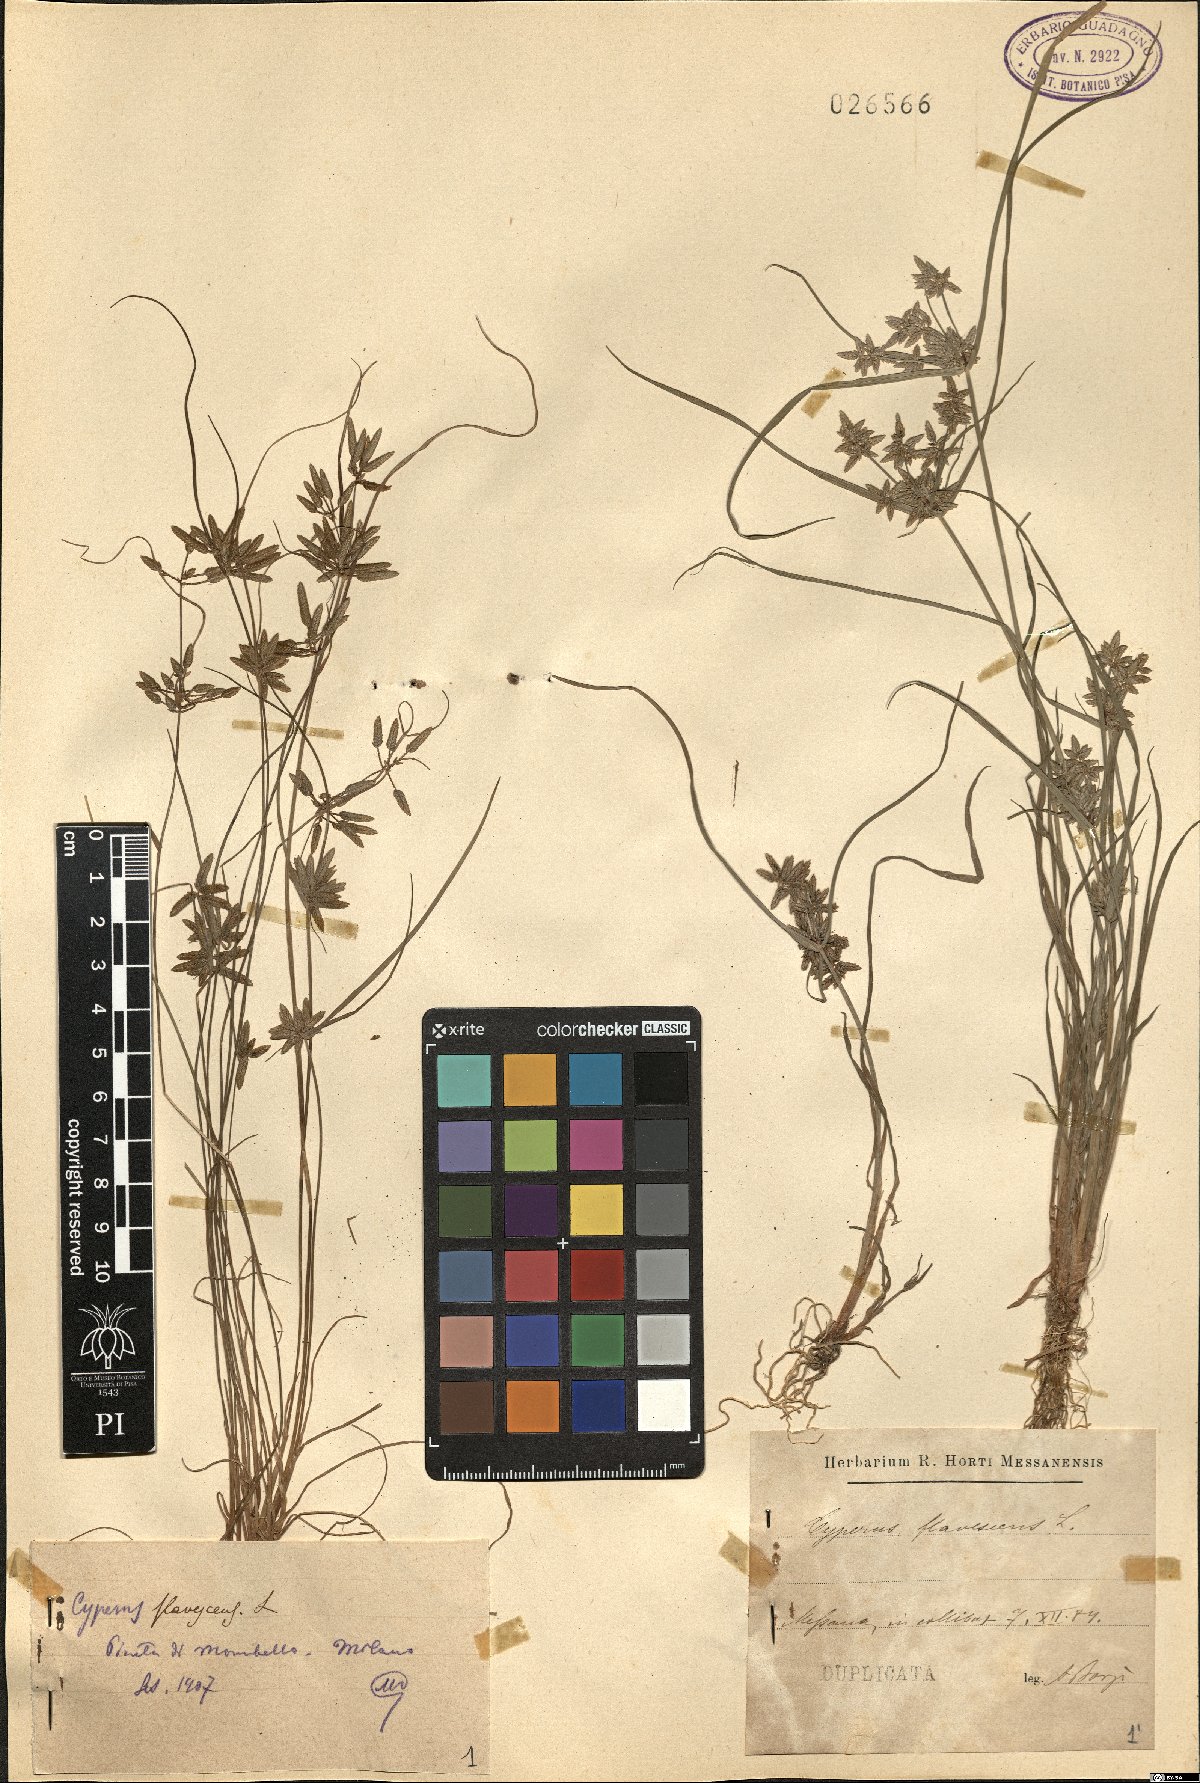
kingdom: Plantae
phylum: Tracheophyta
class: Liliopsida
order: Poales
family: Cyperaceae
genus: Cyperus
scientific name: Cyperus flavescens
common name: Yellow galingale
